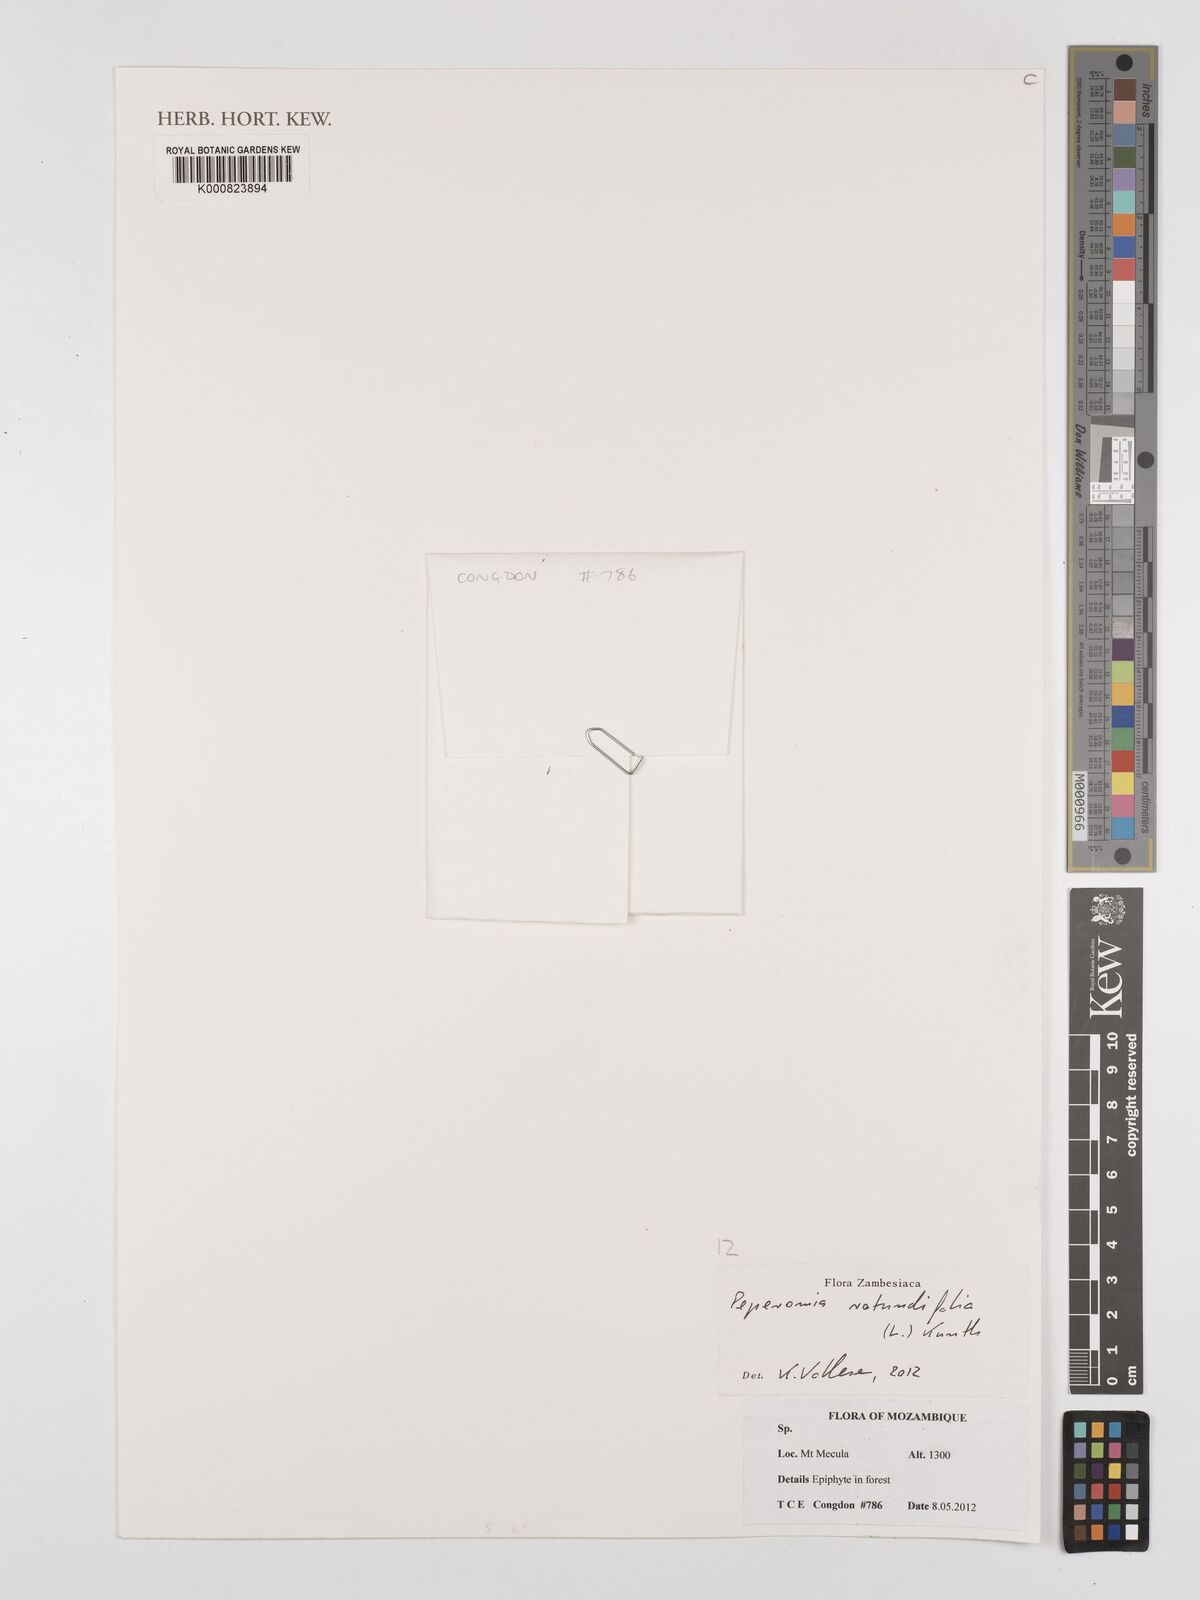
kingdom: Plantae
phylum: Tracheophyta
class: Magnoliopsida
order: Piperales
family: Piperaceae
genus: Peperomia
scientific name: Peperomia rotundifolia
